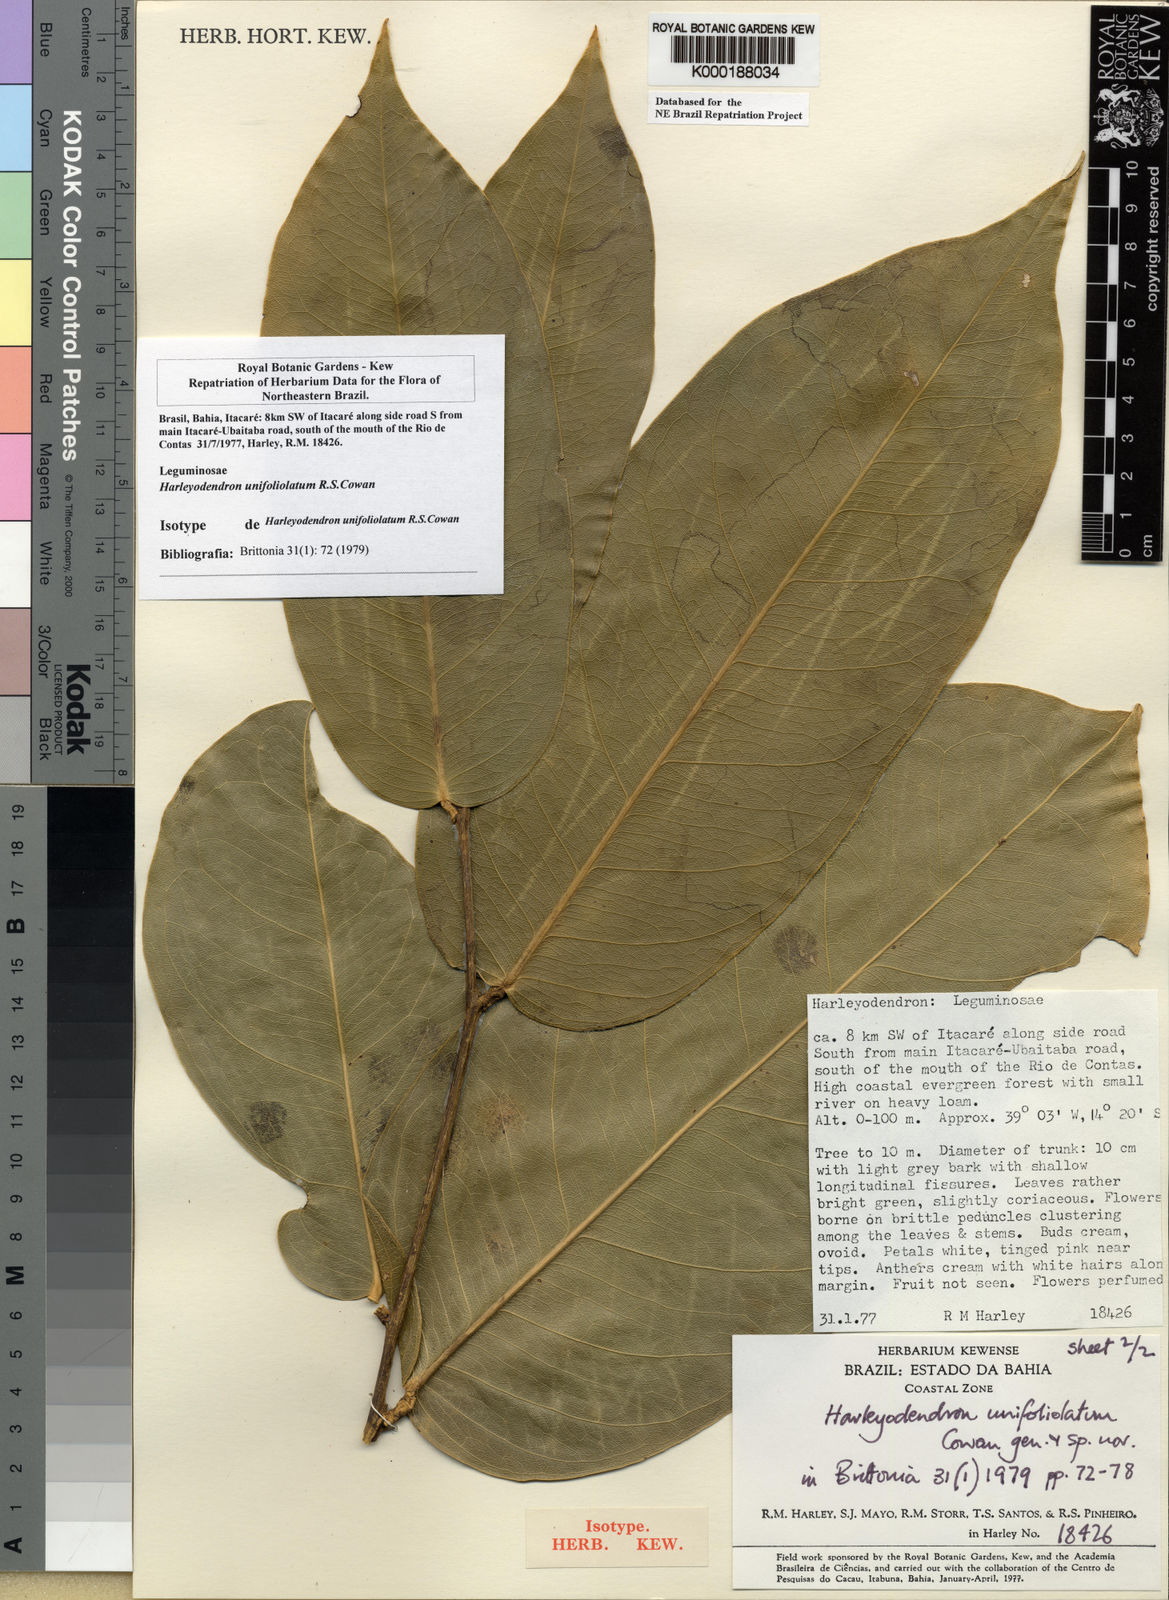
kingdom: Plantae
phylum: Tracheophyta
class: Magnoliopsida
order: Fabales
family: Fabaceae
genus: Harleyodendron
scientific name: Harleyodendron unifoliolatum
